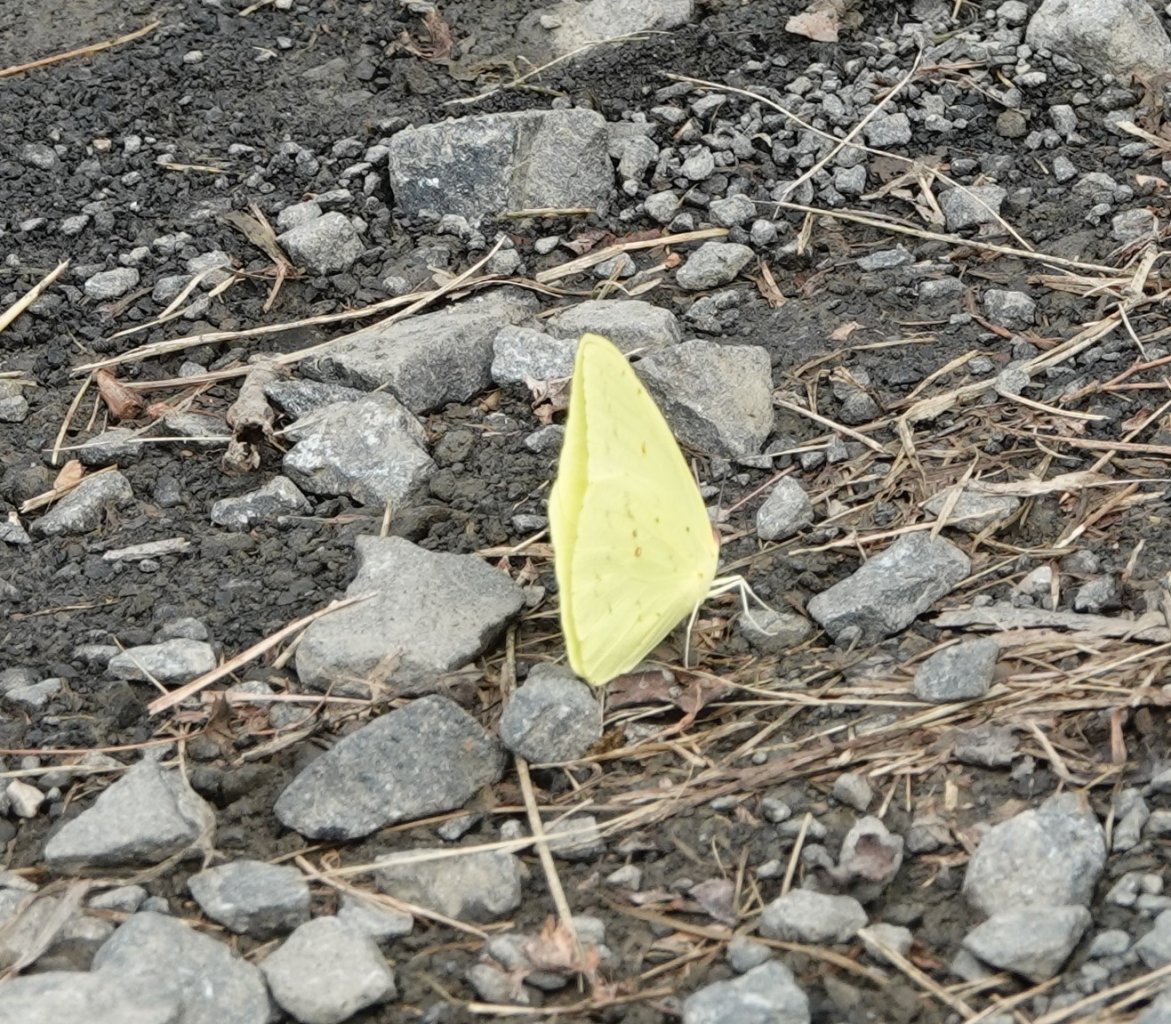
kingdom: Animalia
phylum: Arthropoda
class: Insecta
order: Lepidoptera
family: Pieridae
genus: Phoebis
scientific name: Phoebis sennae
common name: Cloudless Sulphur
